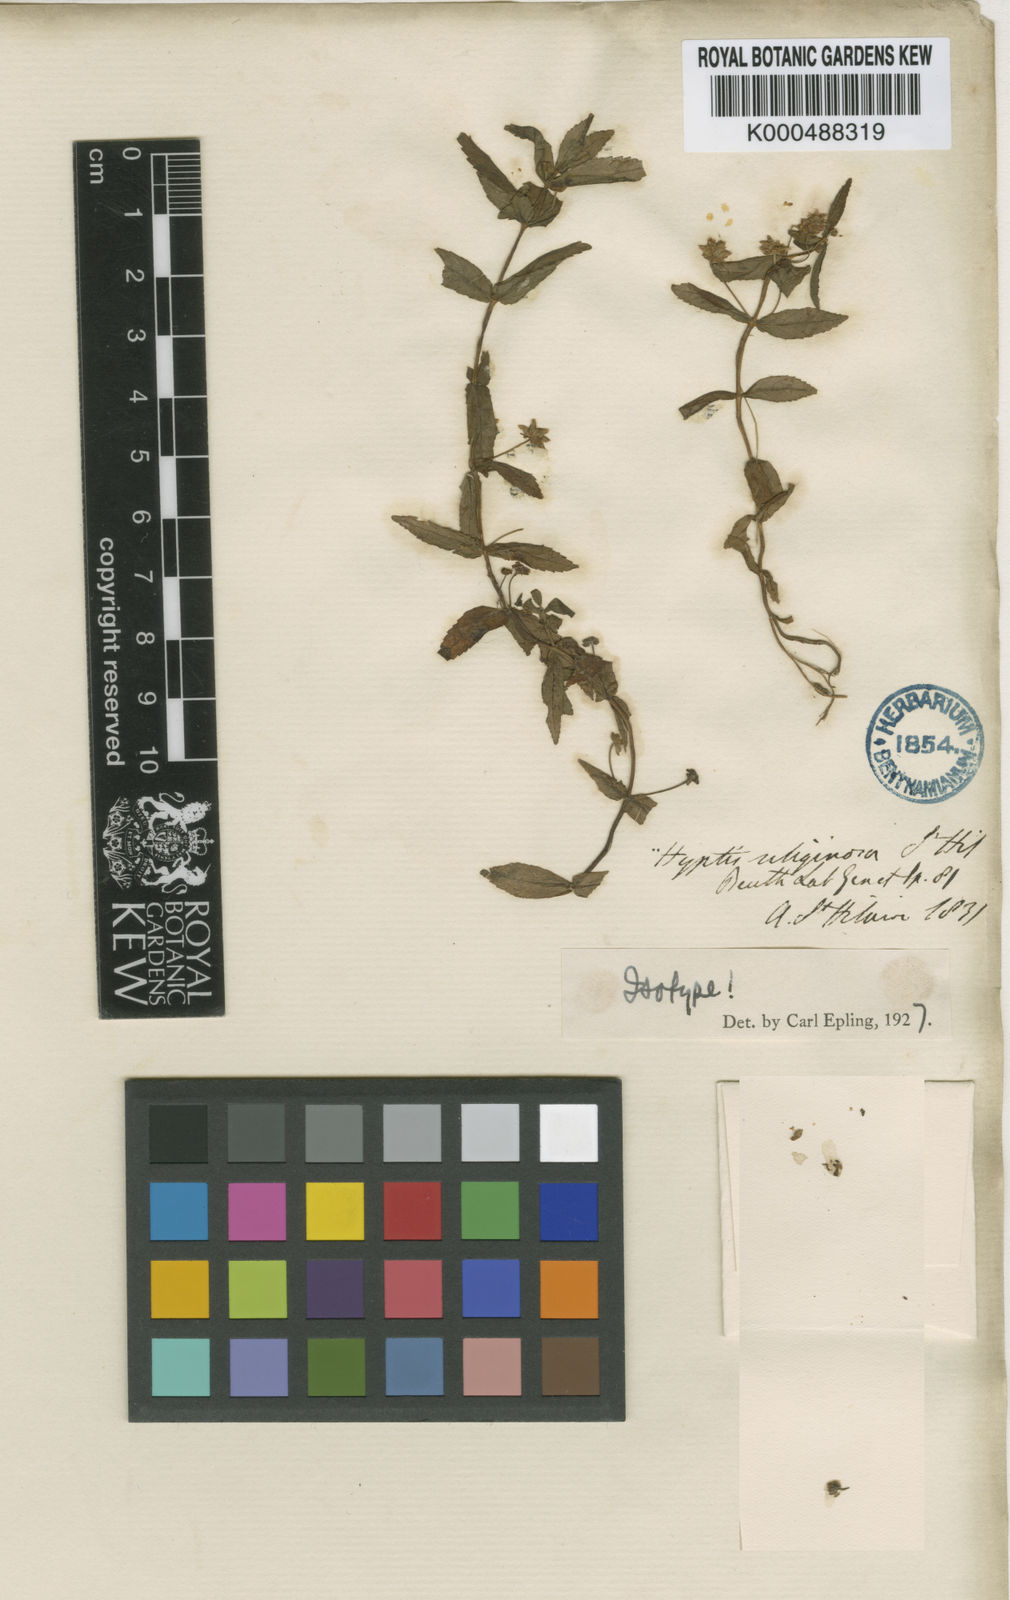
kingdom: Plantae
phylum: Tracheophyta
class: Magnoliopsida
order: Lamiales
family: Lamiaceae
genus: Hyptis
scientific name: Hyptis uliginosa
